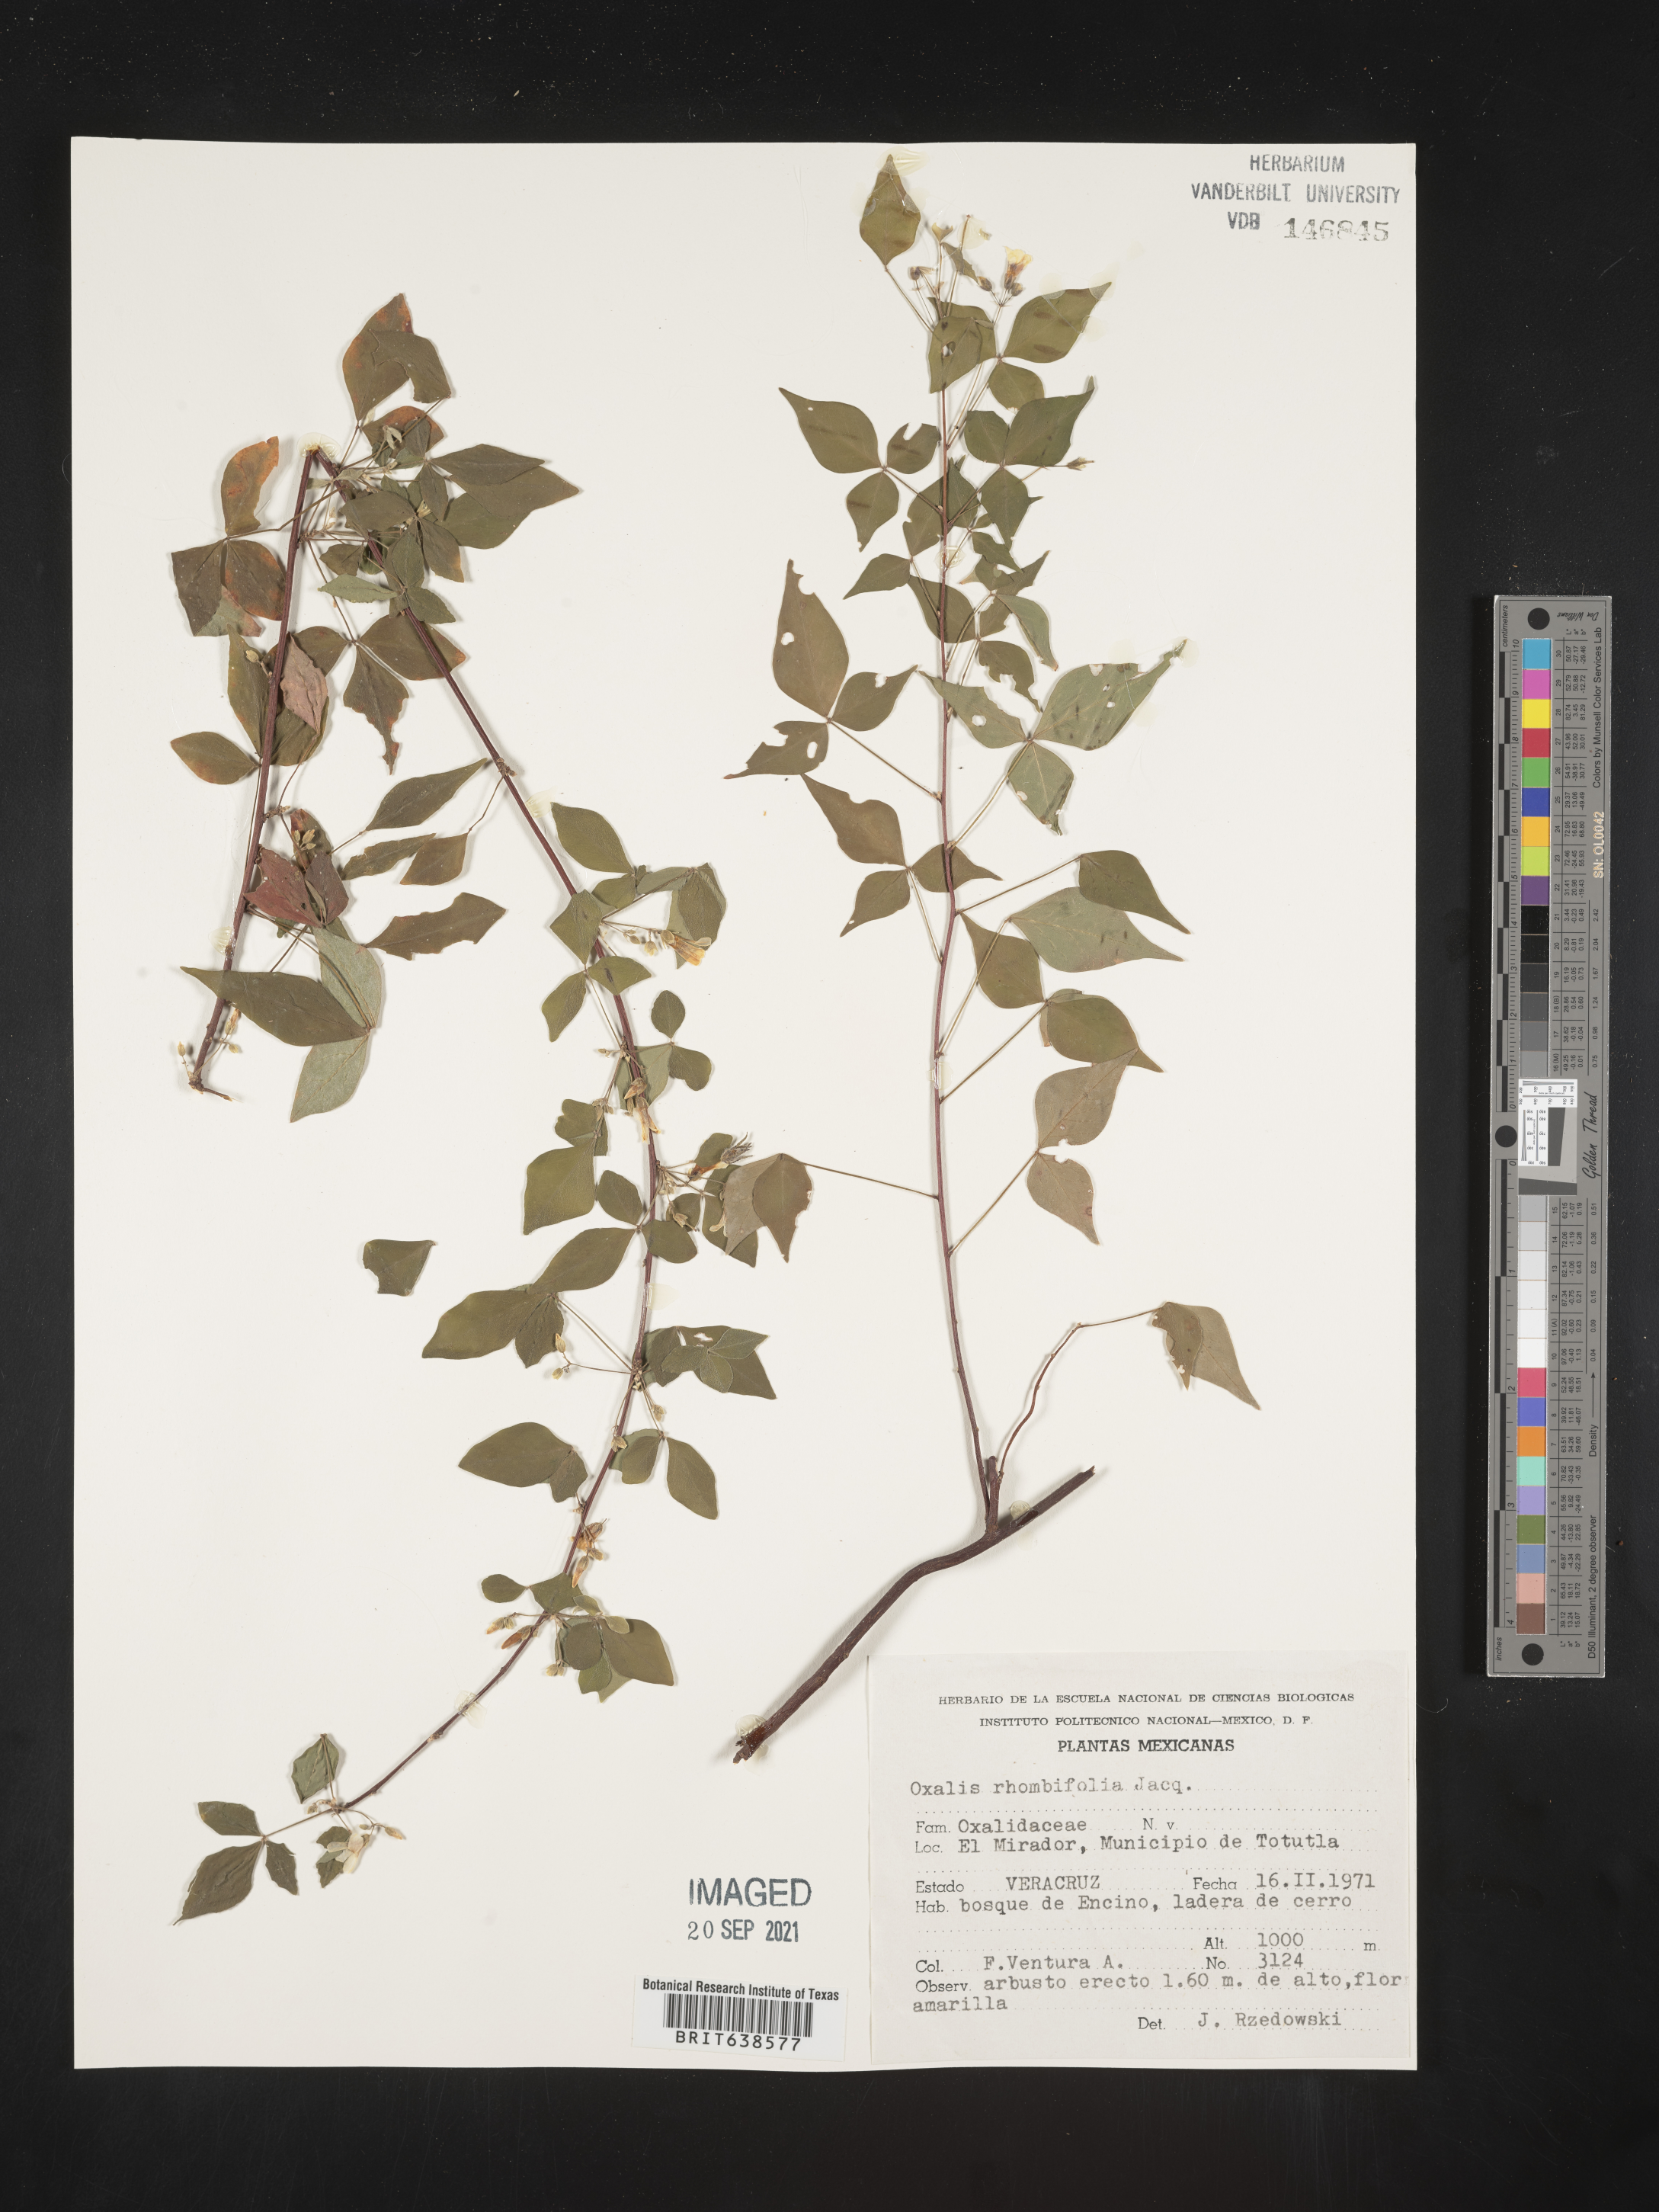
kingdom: Plantae
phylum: Tracheophyta
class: Magnoliopsida
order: Oxalidales
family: Oxalidaceae
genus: Oxalis
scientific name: Oxalis
